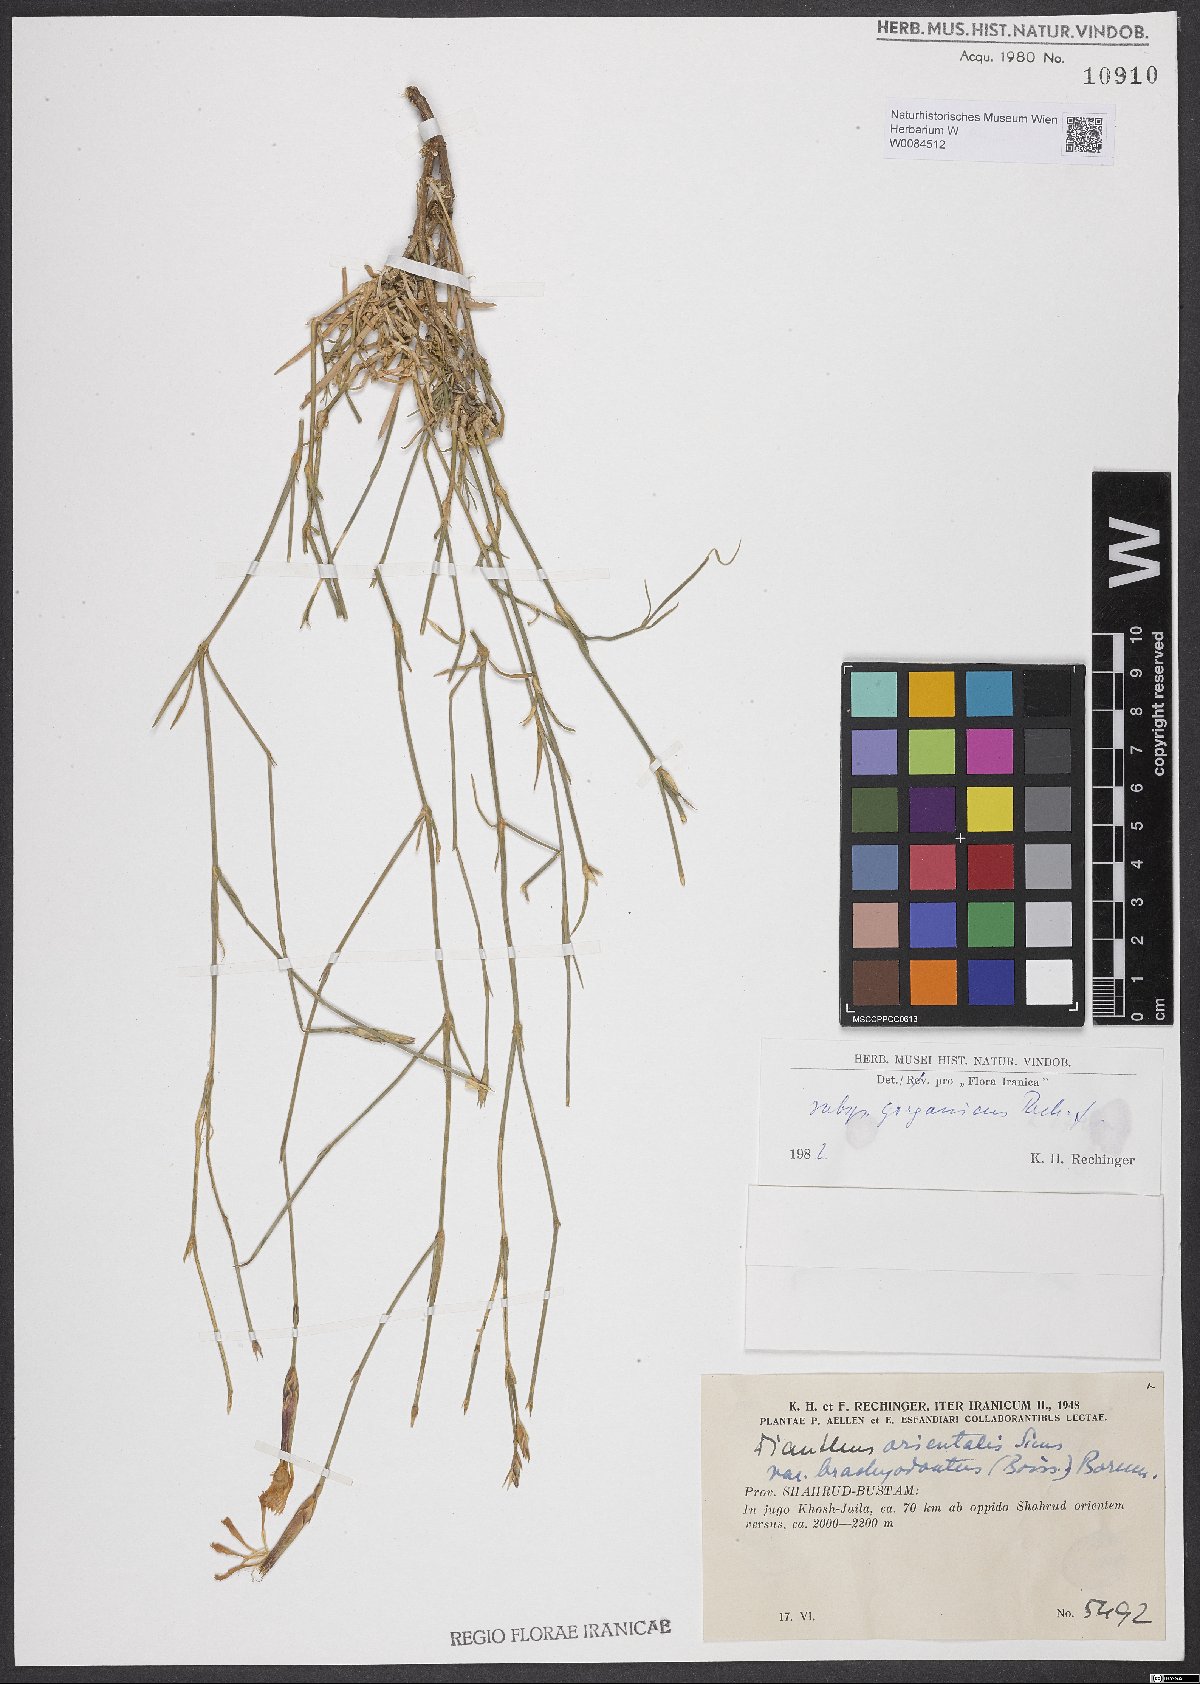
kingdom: Plantae
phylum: Tracheophyta
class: Magnoliopsida
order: Caryophyllales
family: Caryophyllaceae
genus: Dianthus
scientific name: Dianthus orientalis
